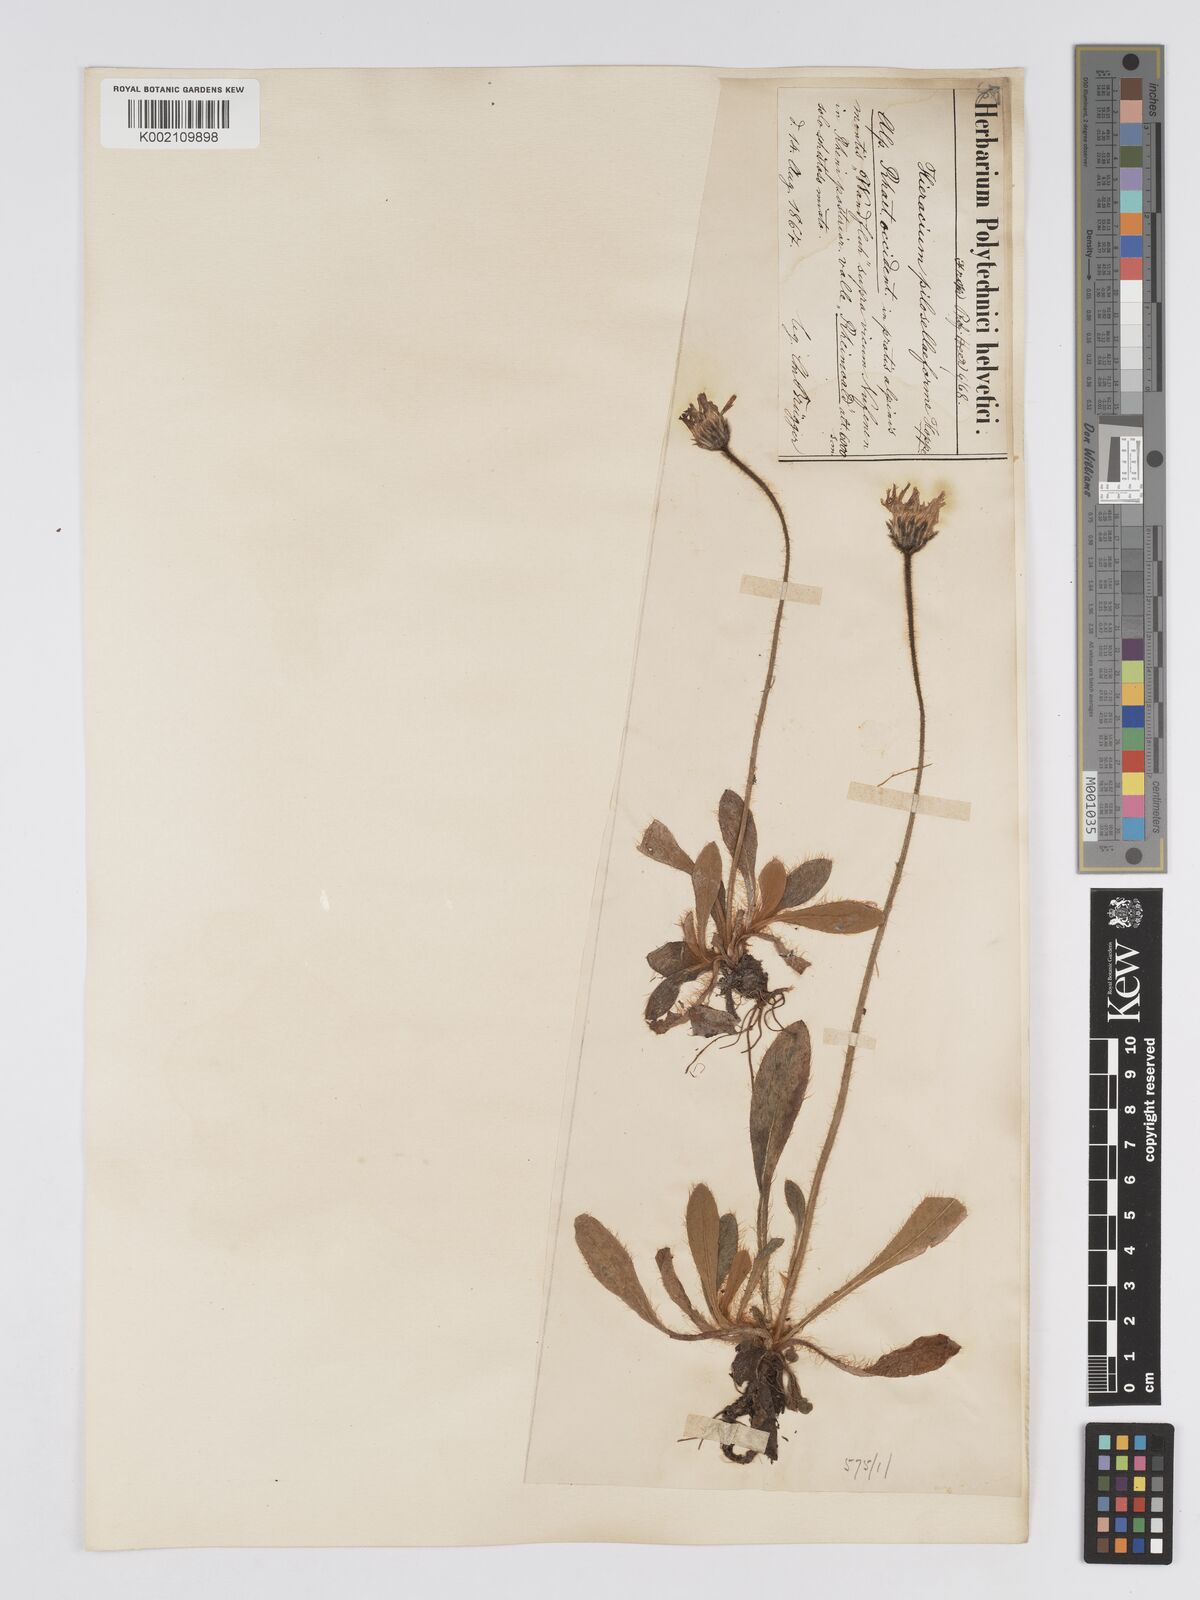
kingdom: Plantae
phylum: Tracheophyta
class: Magnoliopsida
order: Asterales
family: Asteraceae
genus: Pilosella
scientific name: Pilosella hoppeana
